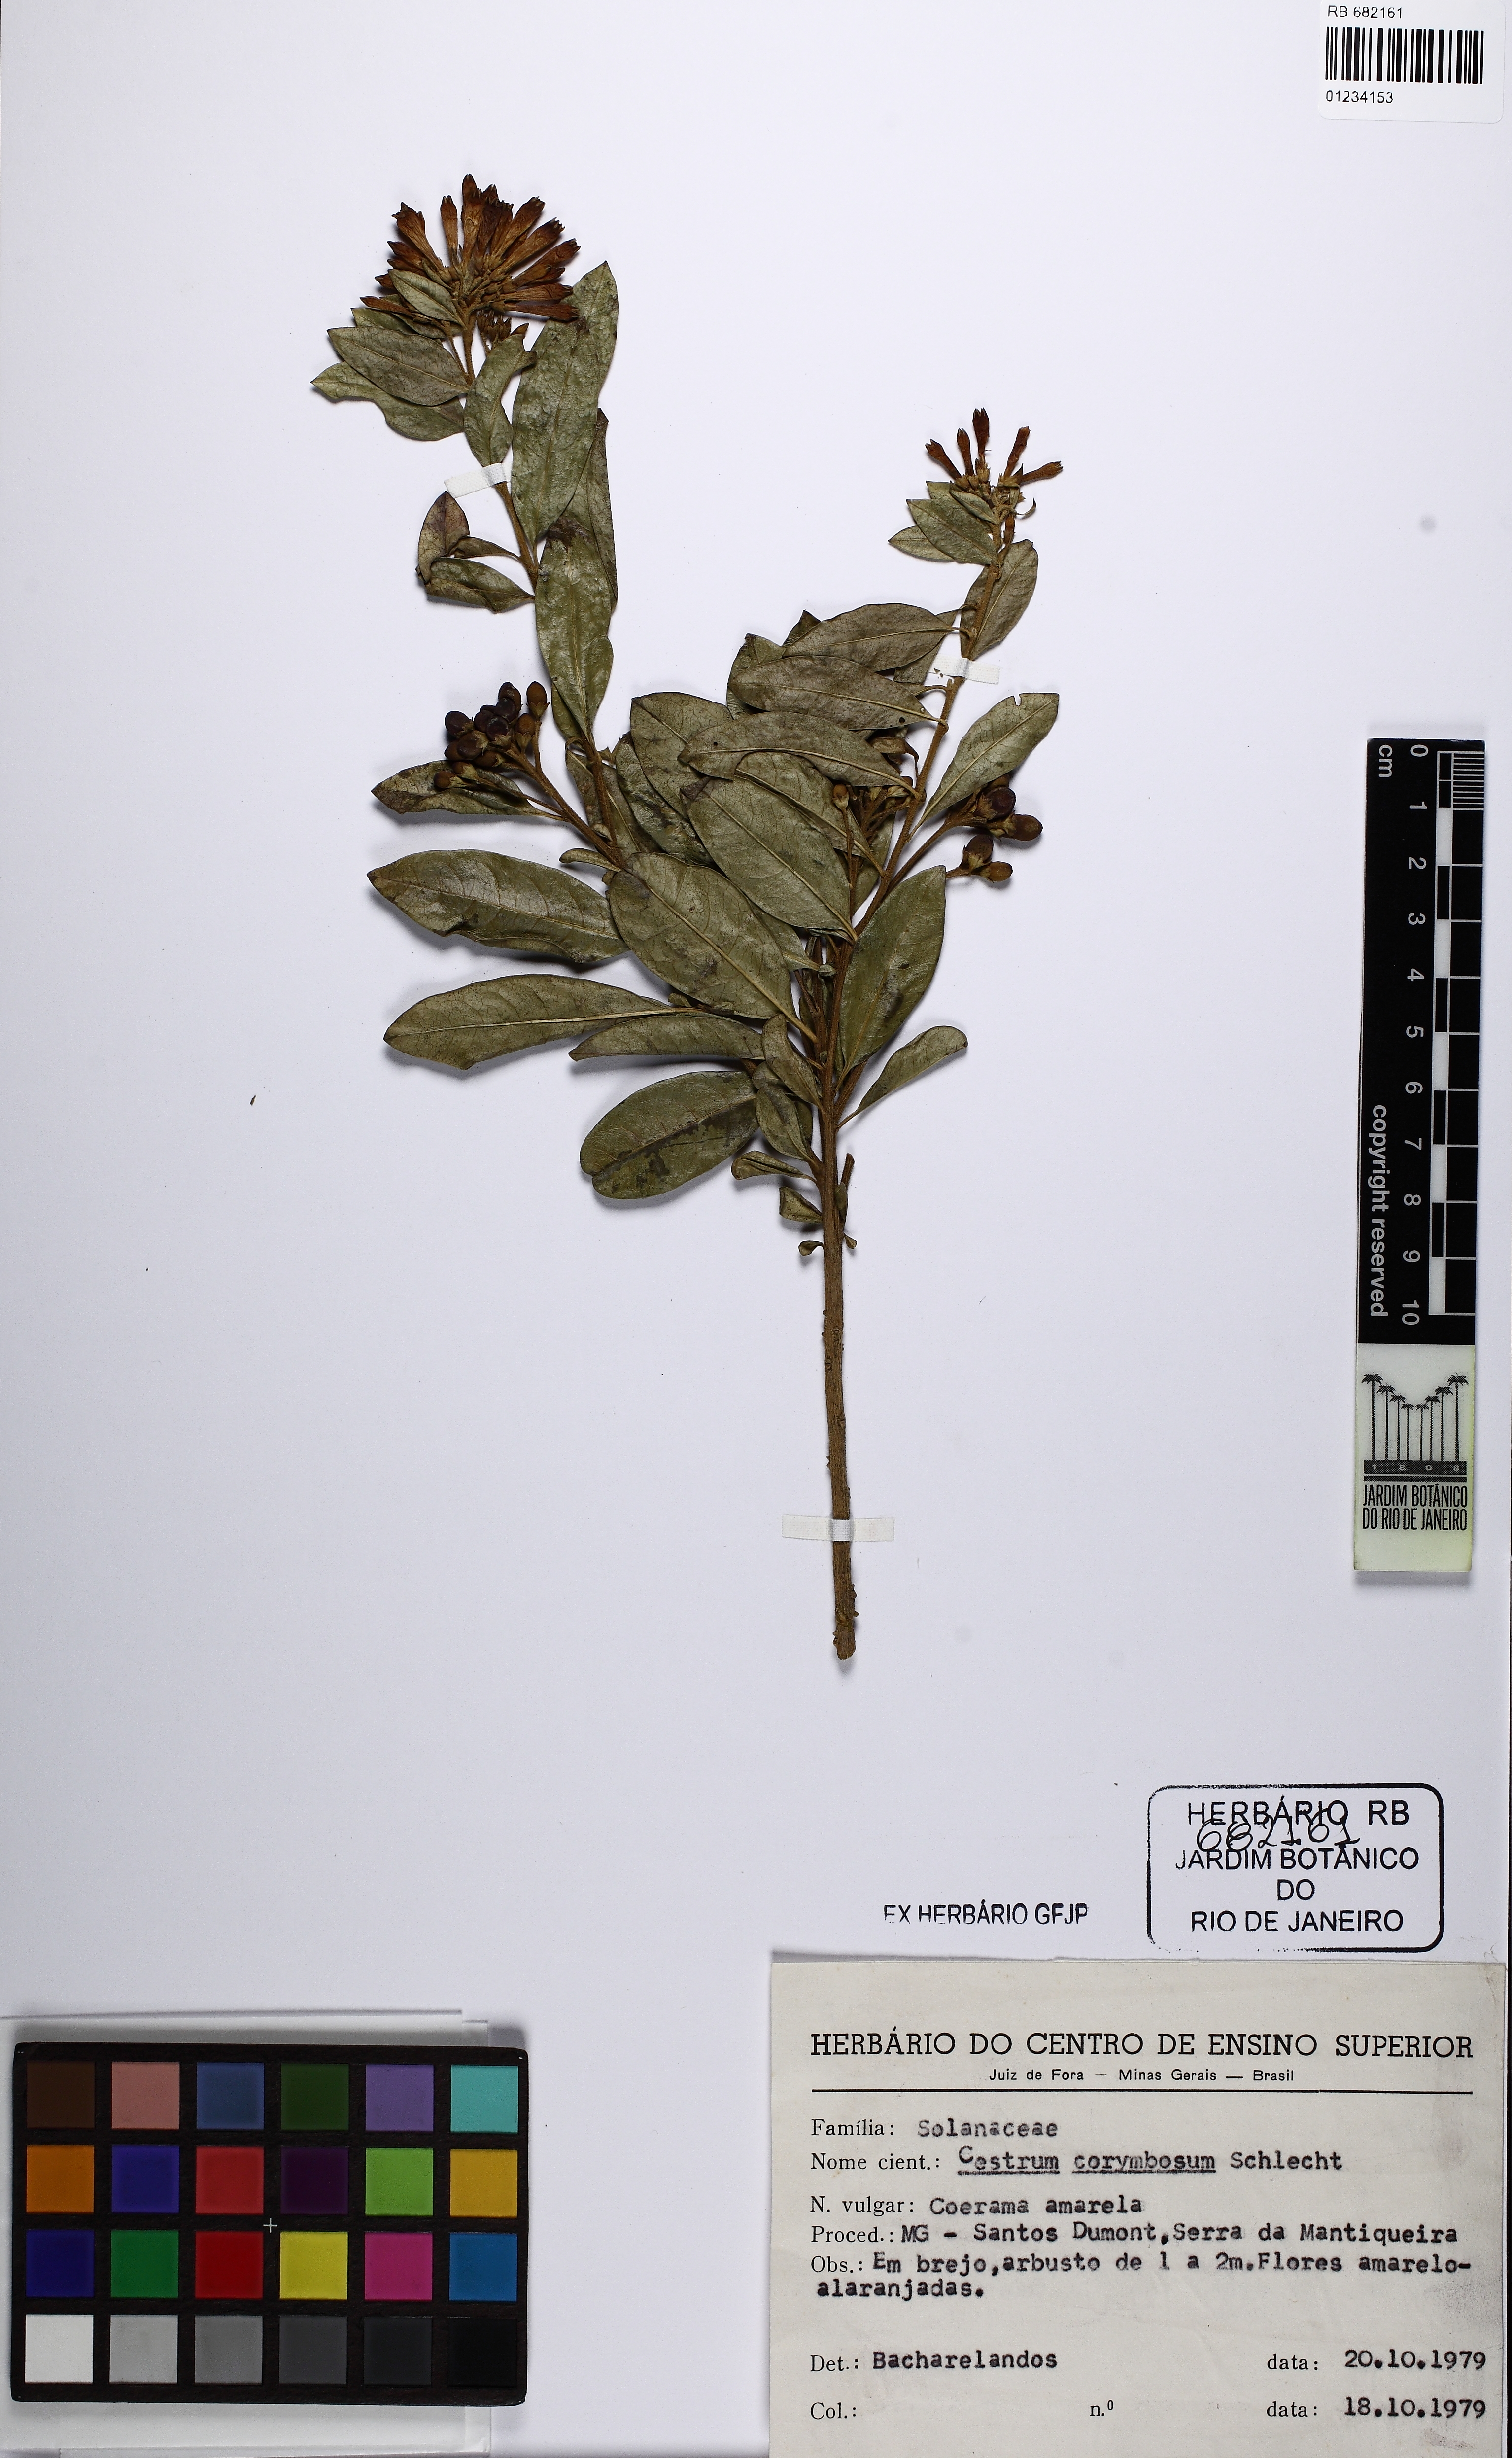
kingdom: Plantae
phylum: Tracheophyta
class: Magnoliopsida
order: Solanales
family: Solanaceae
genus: Cestrum
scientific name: Cestrum corymbosum
